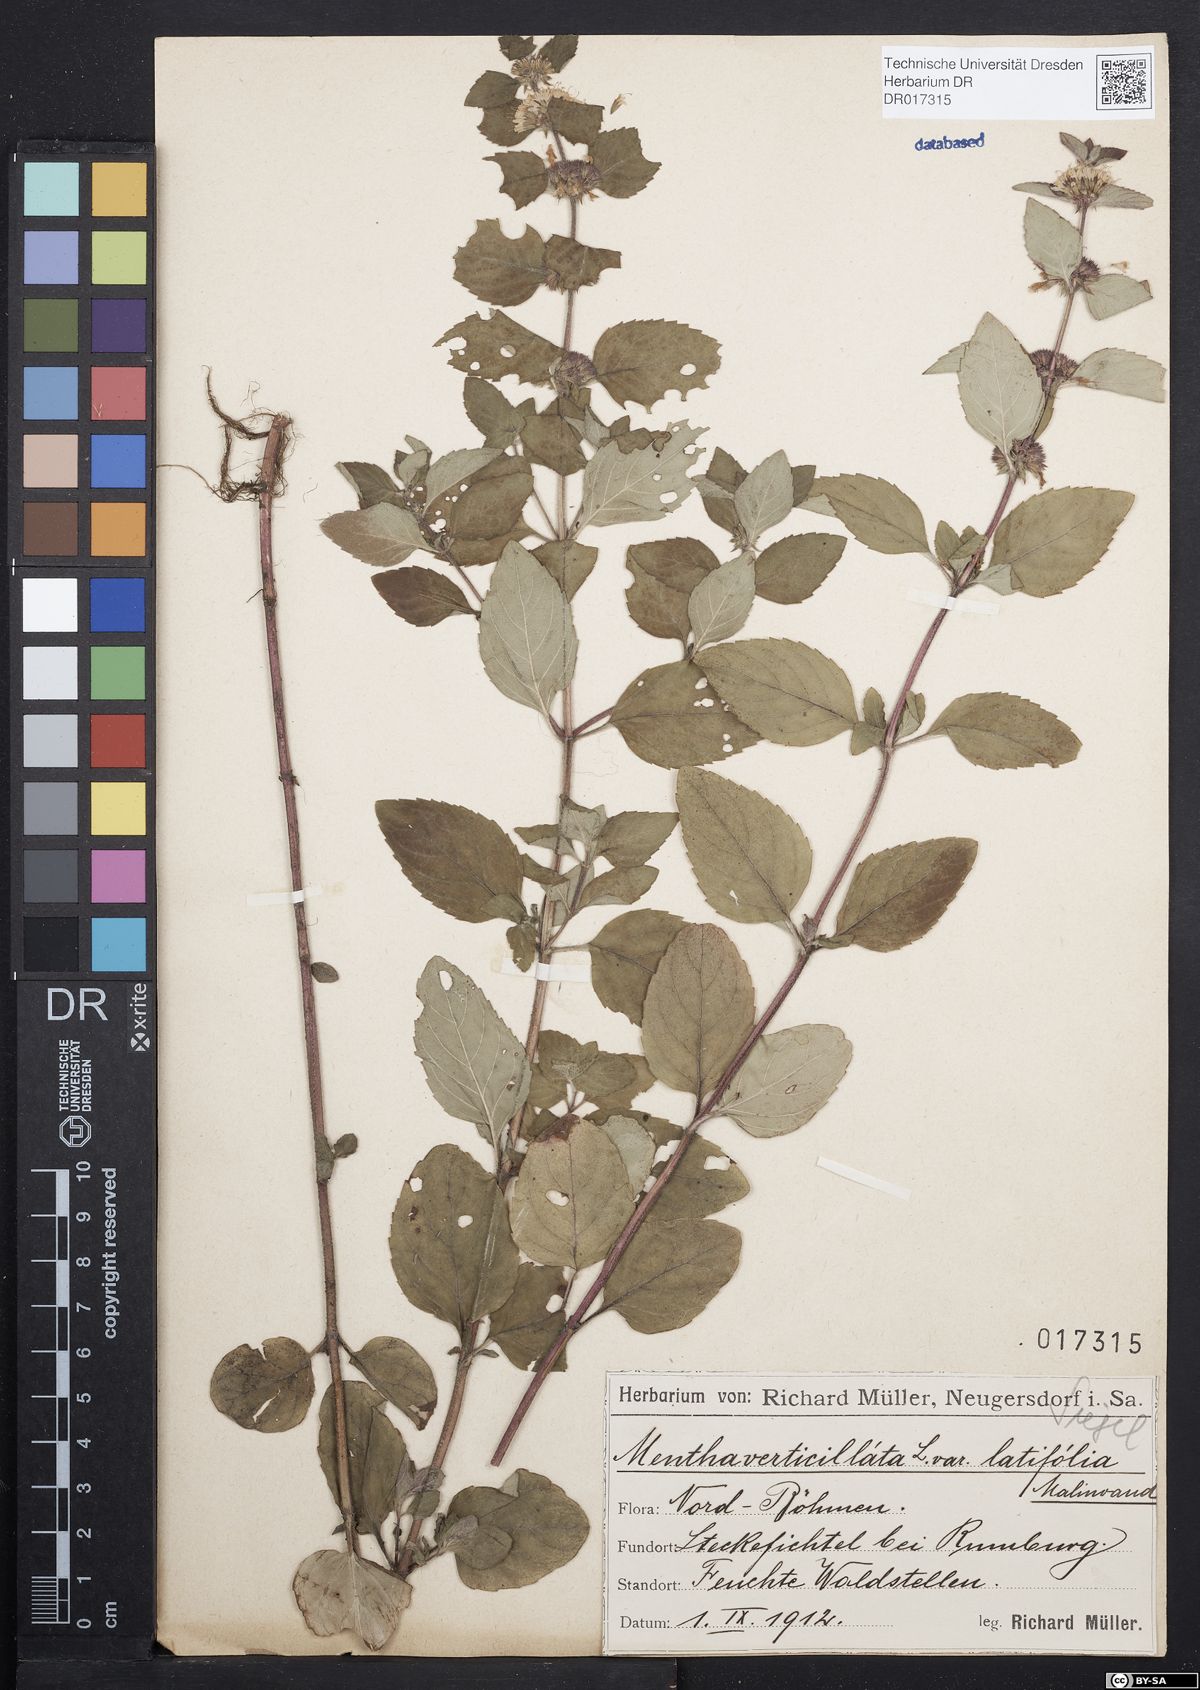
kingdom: Plantae
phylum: Tracheophyta
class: Magnoliopsida
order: Lamiales
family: Lamiaceae
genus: Mentha
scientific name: Mentha verticillata
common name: Mint
